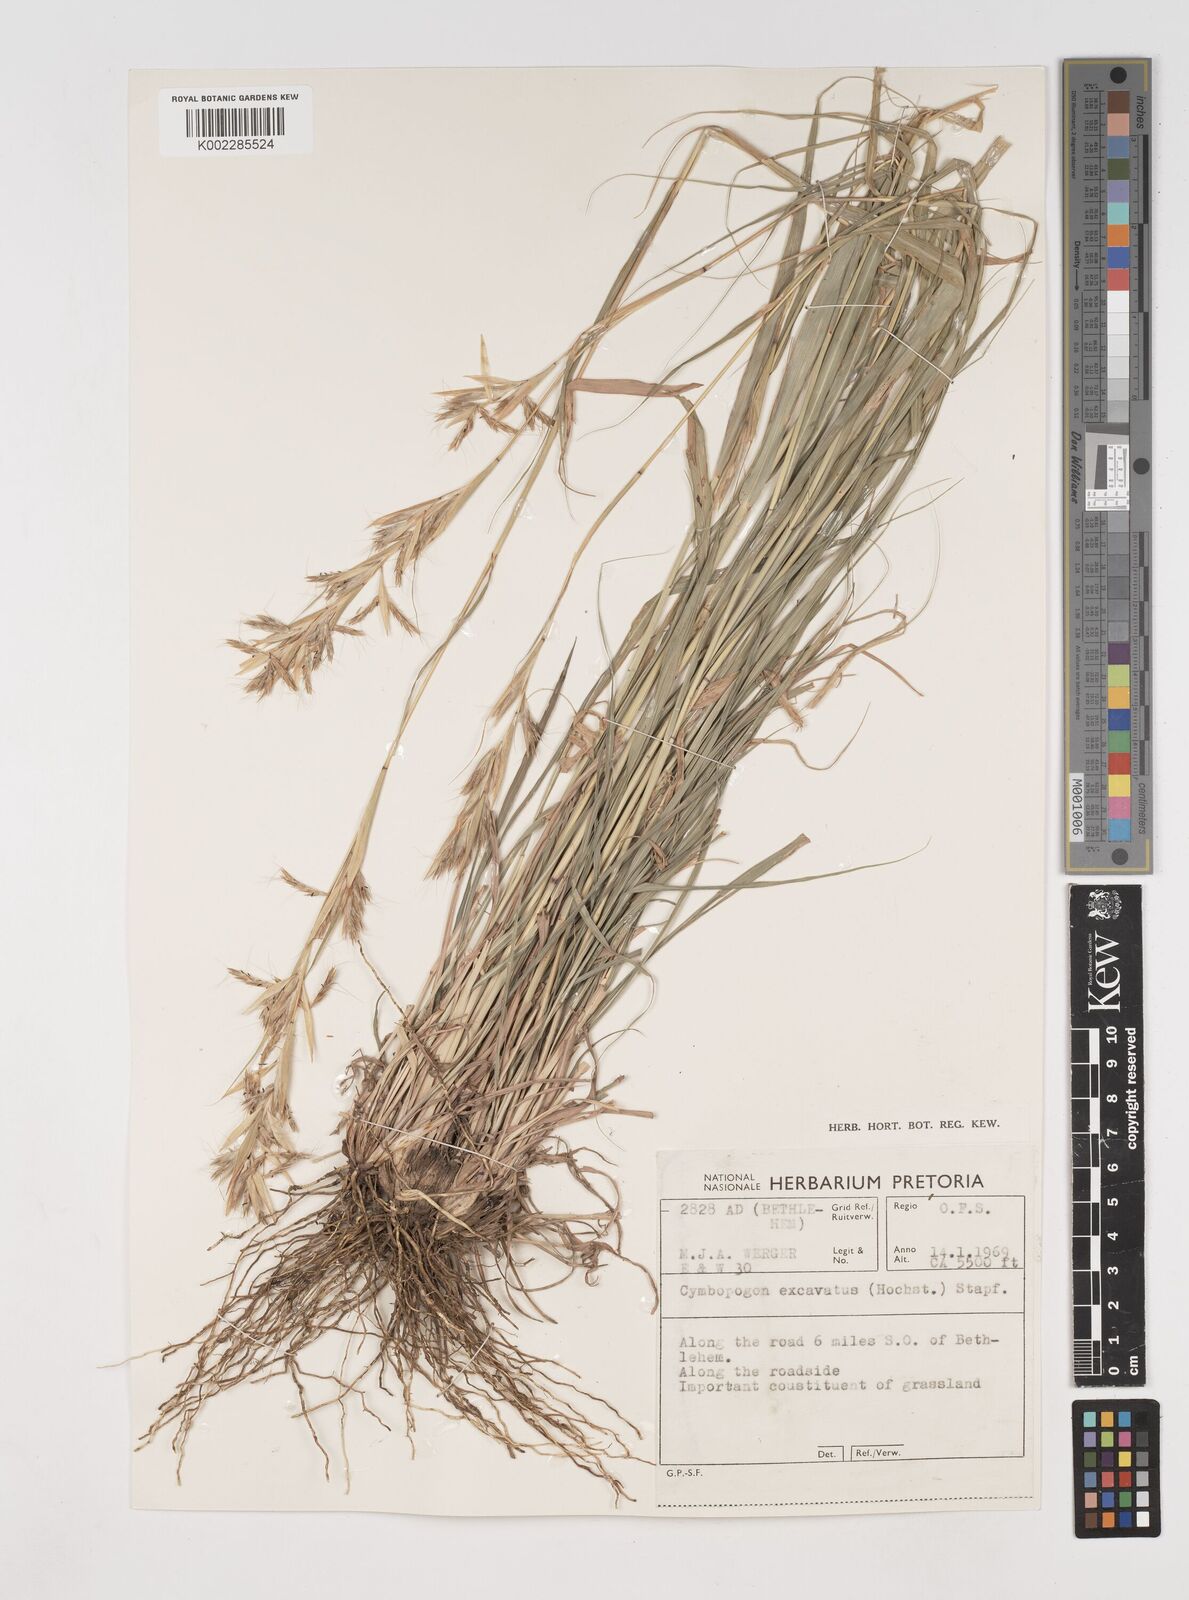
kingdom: Plantae
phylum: Tracheophyta
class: Liliopsida
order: Poales
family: Poaceae
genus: Cymbopogon
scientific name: Cymbopogon caesius
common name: Kachi grass
